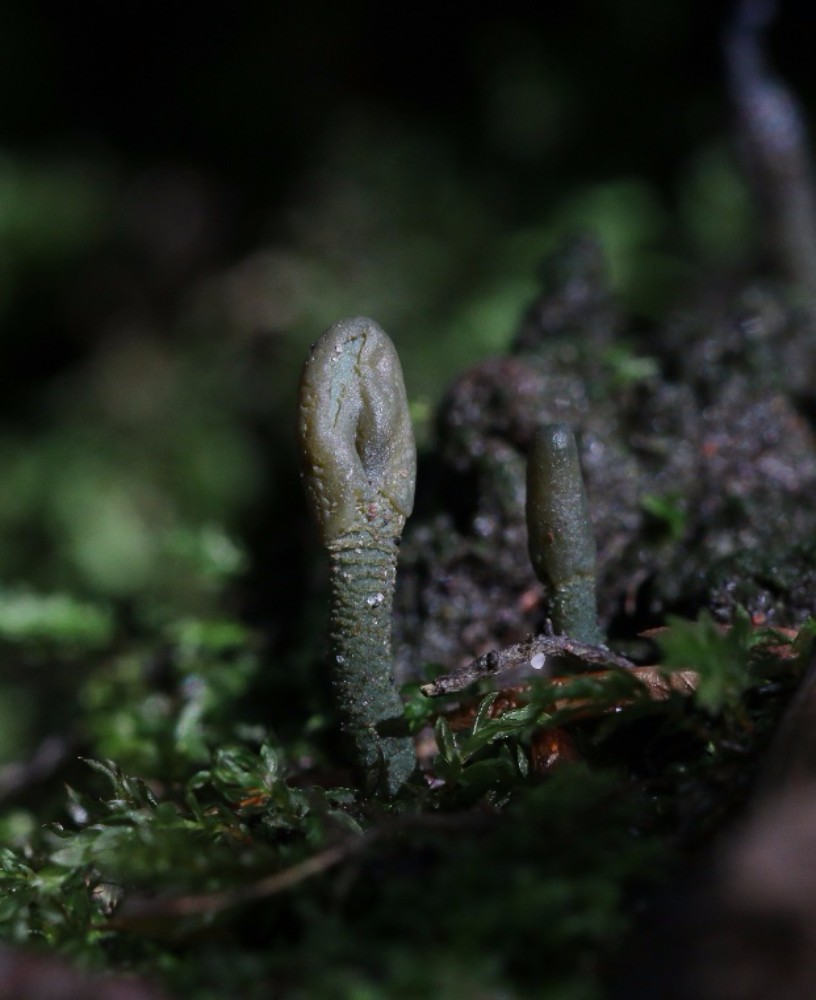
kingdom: Fungi
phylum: Ascomycota
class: Leotiomycetes
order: Leotiales
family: Leotiaceae
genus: Microglossum
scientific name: Microglossum griseoviride
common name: grågrøn farvetunge
